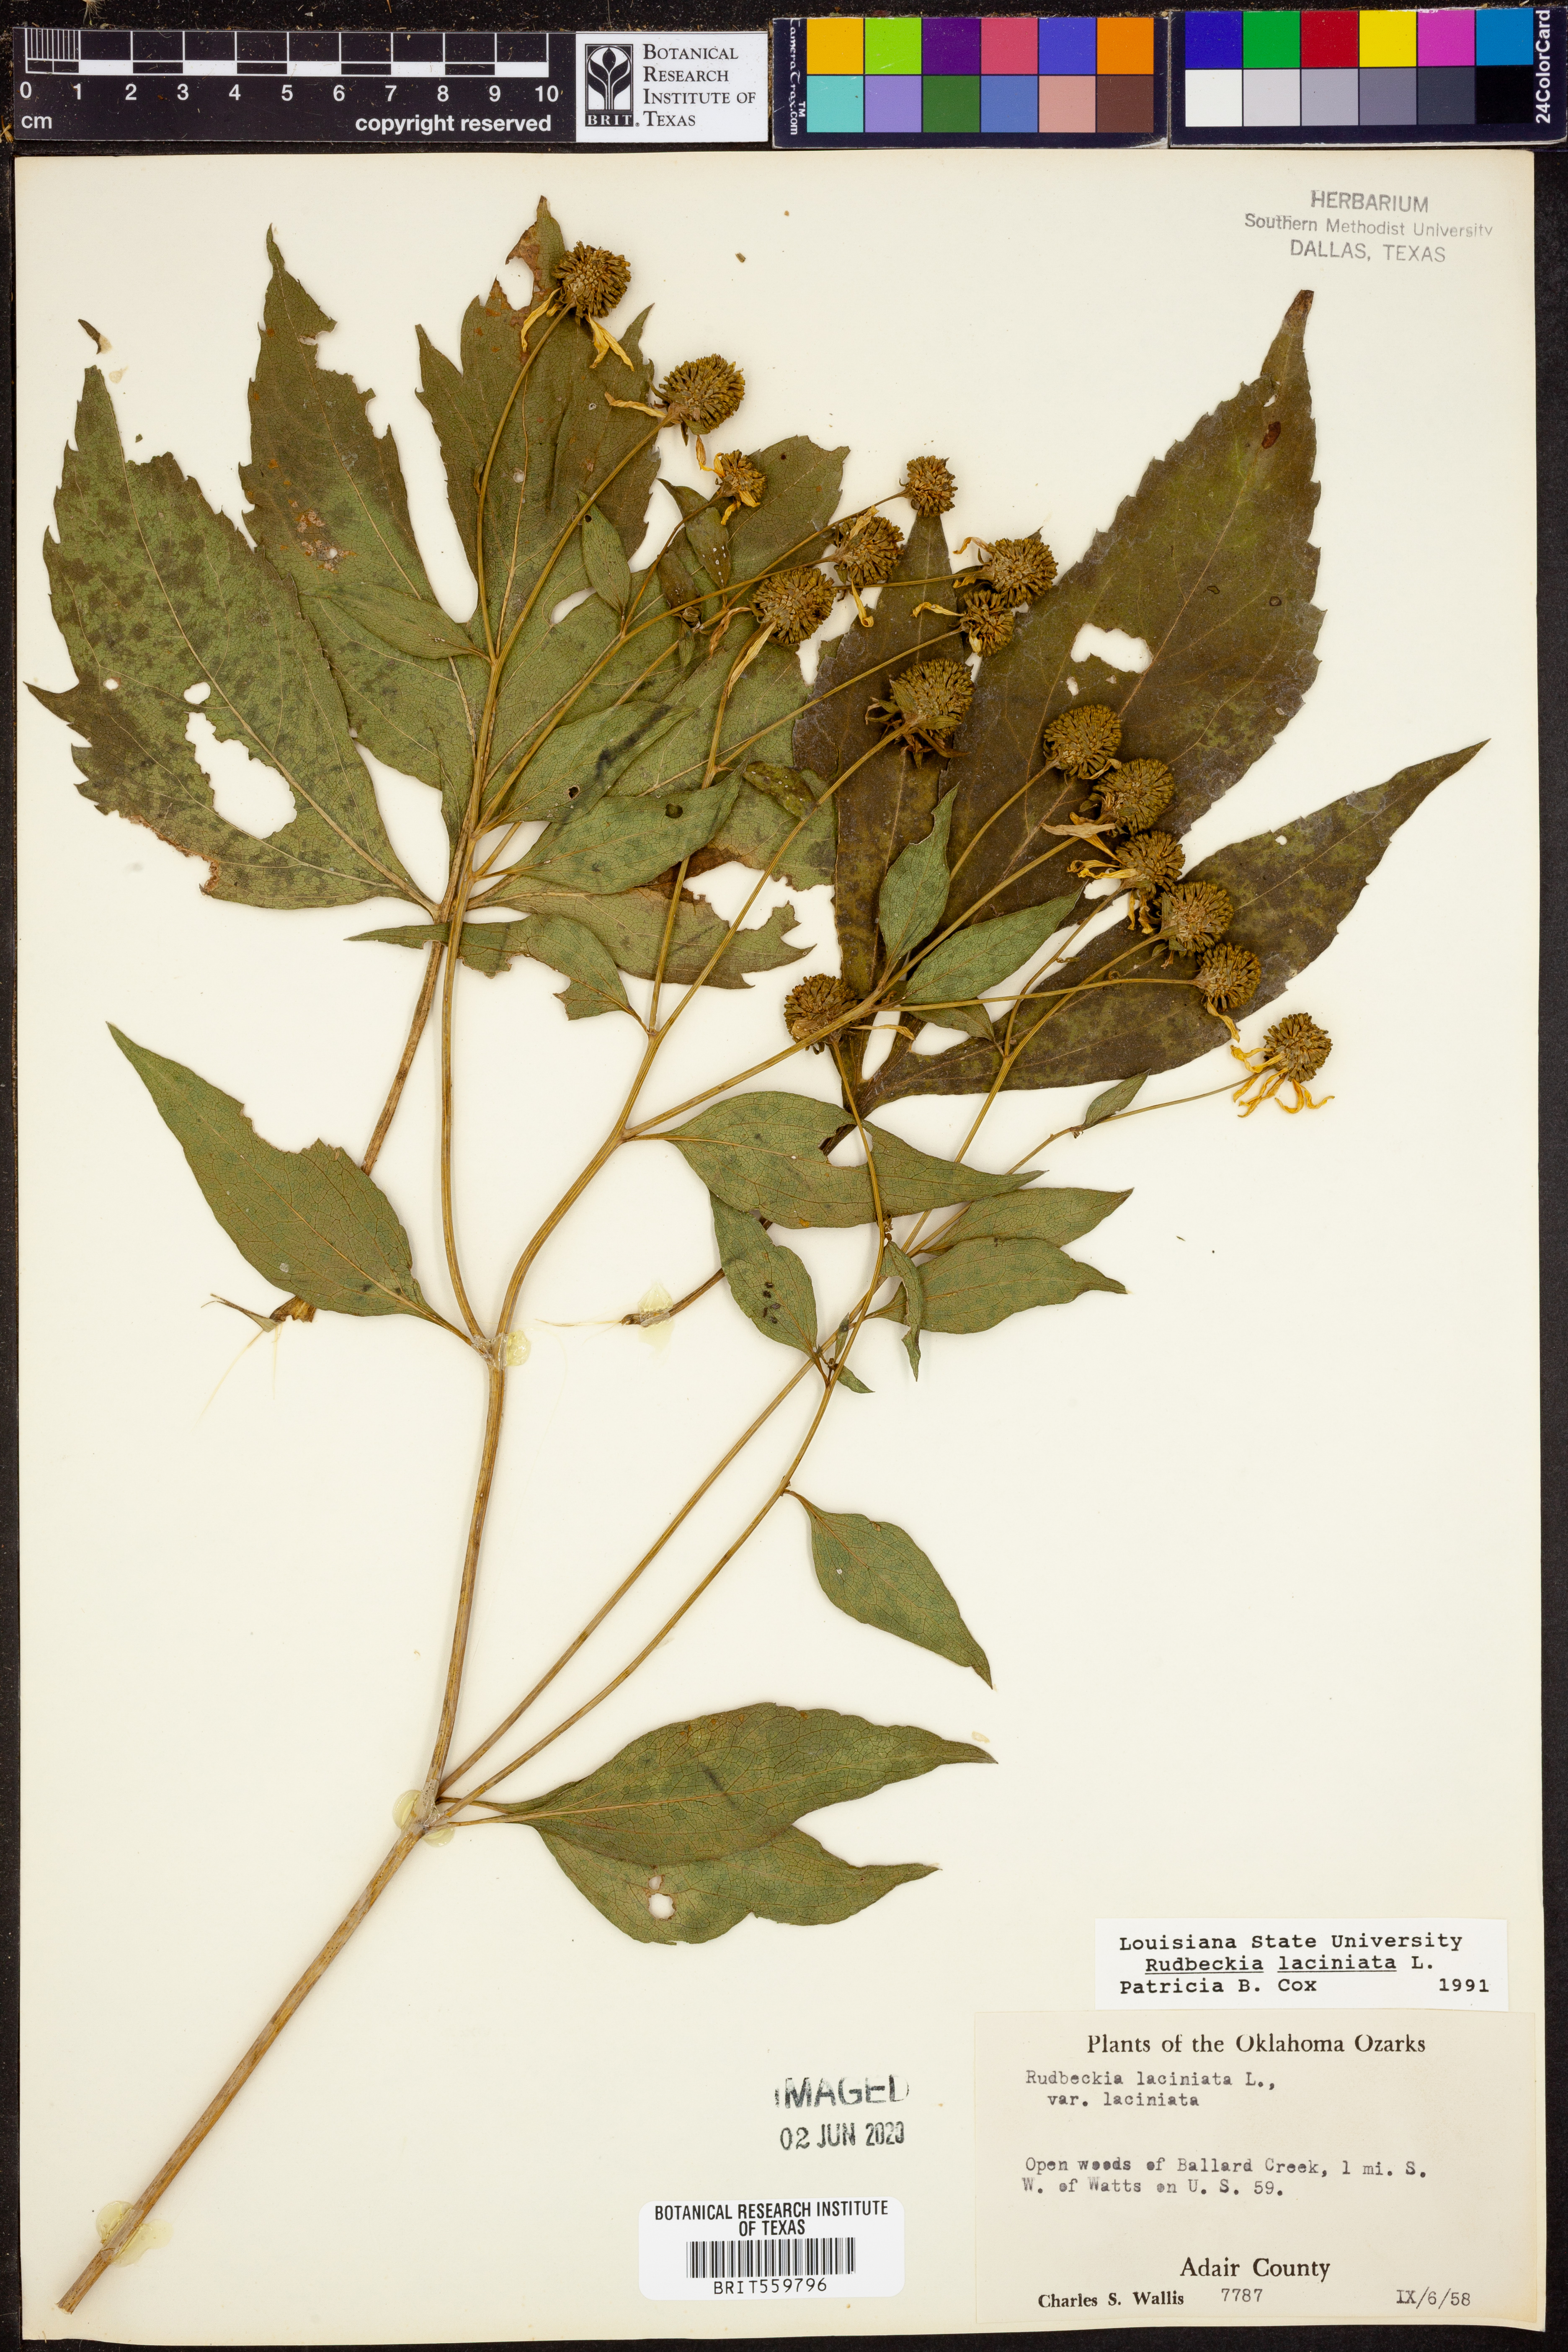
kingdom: Plantae
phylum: Tracheophyta
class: Magnoliopsida
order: Asterales
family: Asteraceae
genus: Rudbeckia
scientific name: Rudbeckia laciniata
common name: Coneflower
